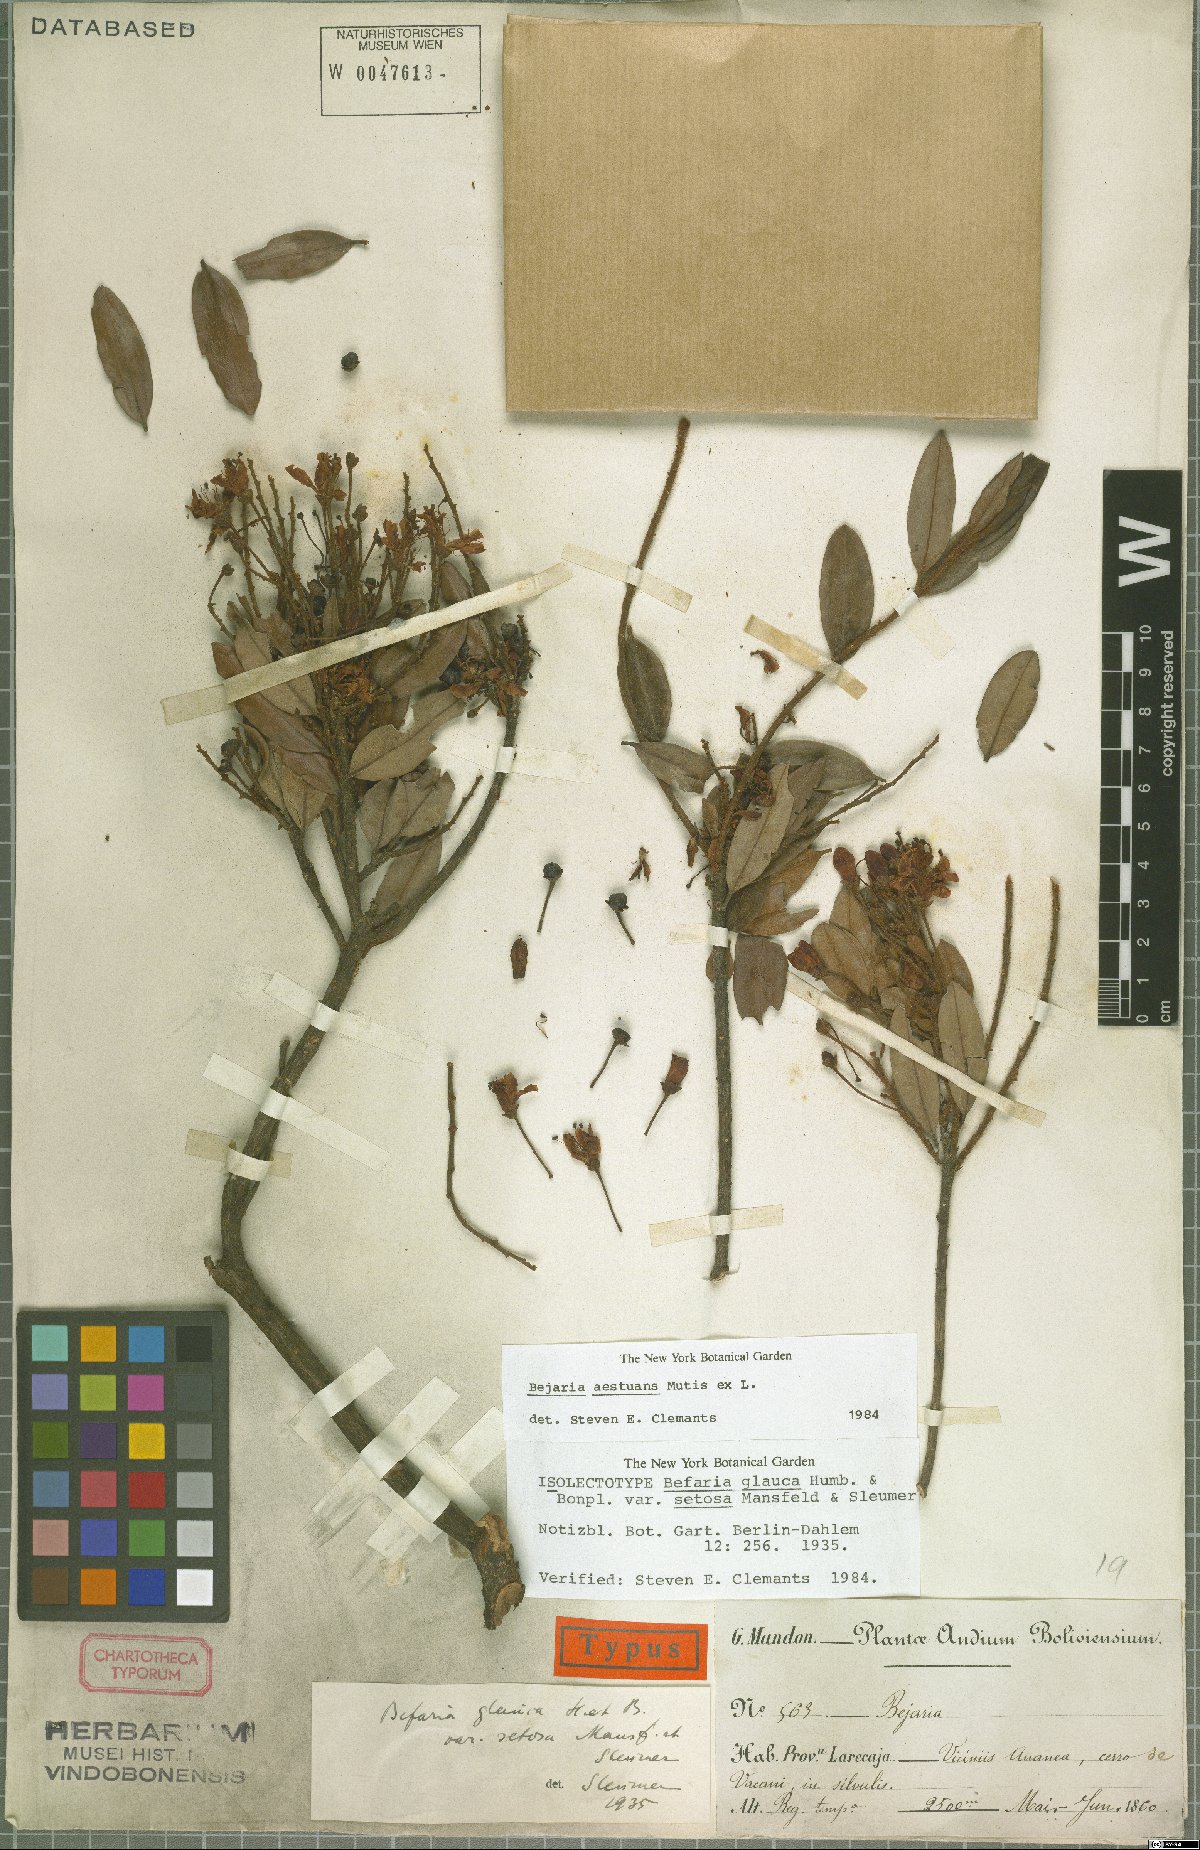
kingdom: Plantae
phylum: Tracheophyta
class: Magnoliopsida
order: Ericales
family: Ericaceae
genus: Bejaria
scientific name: Bejaria aestuans
